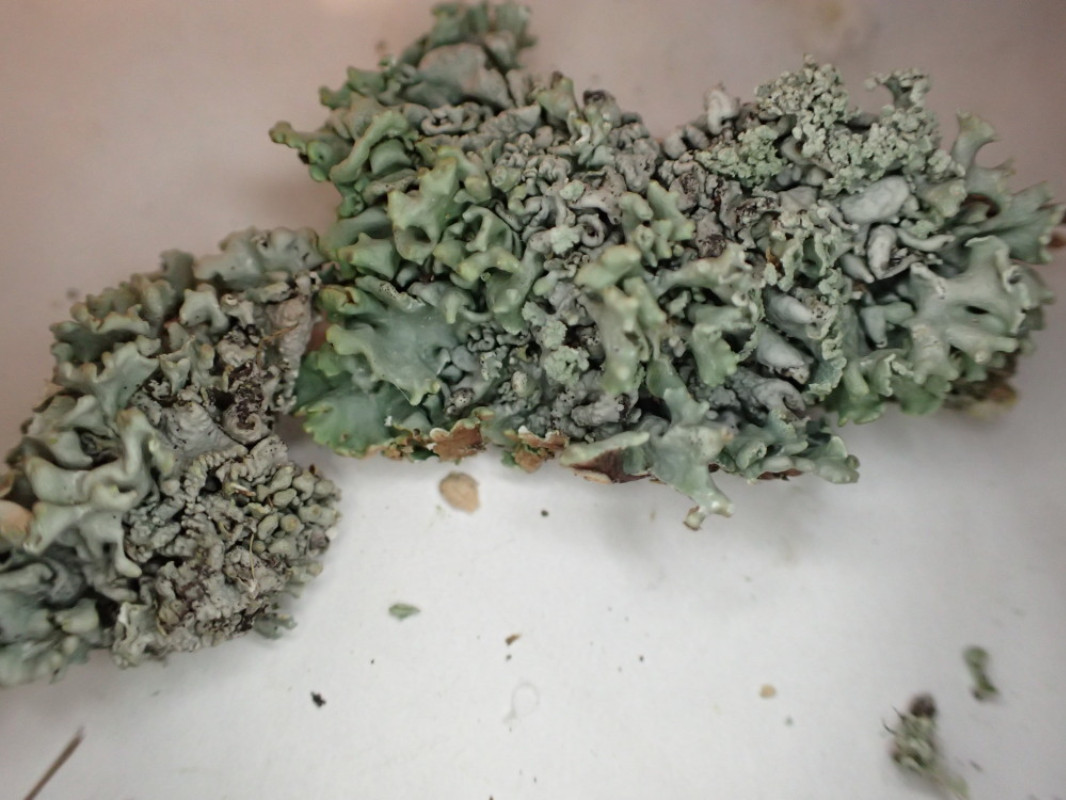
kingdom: Fungi
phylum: Ascomycota
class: Lecanoromycetes
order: Lecanorales
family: Parmeliaceae
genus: Hypogymnia
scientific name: Hypogymnia physodes
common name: almindelig kvistlav
